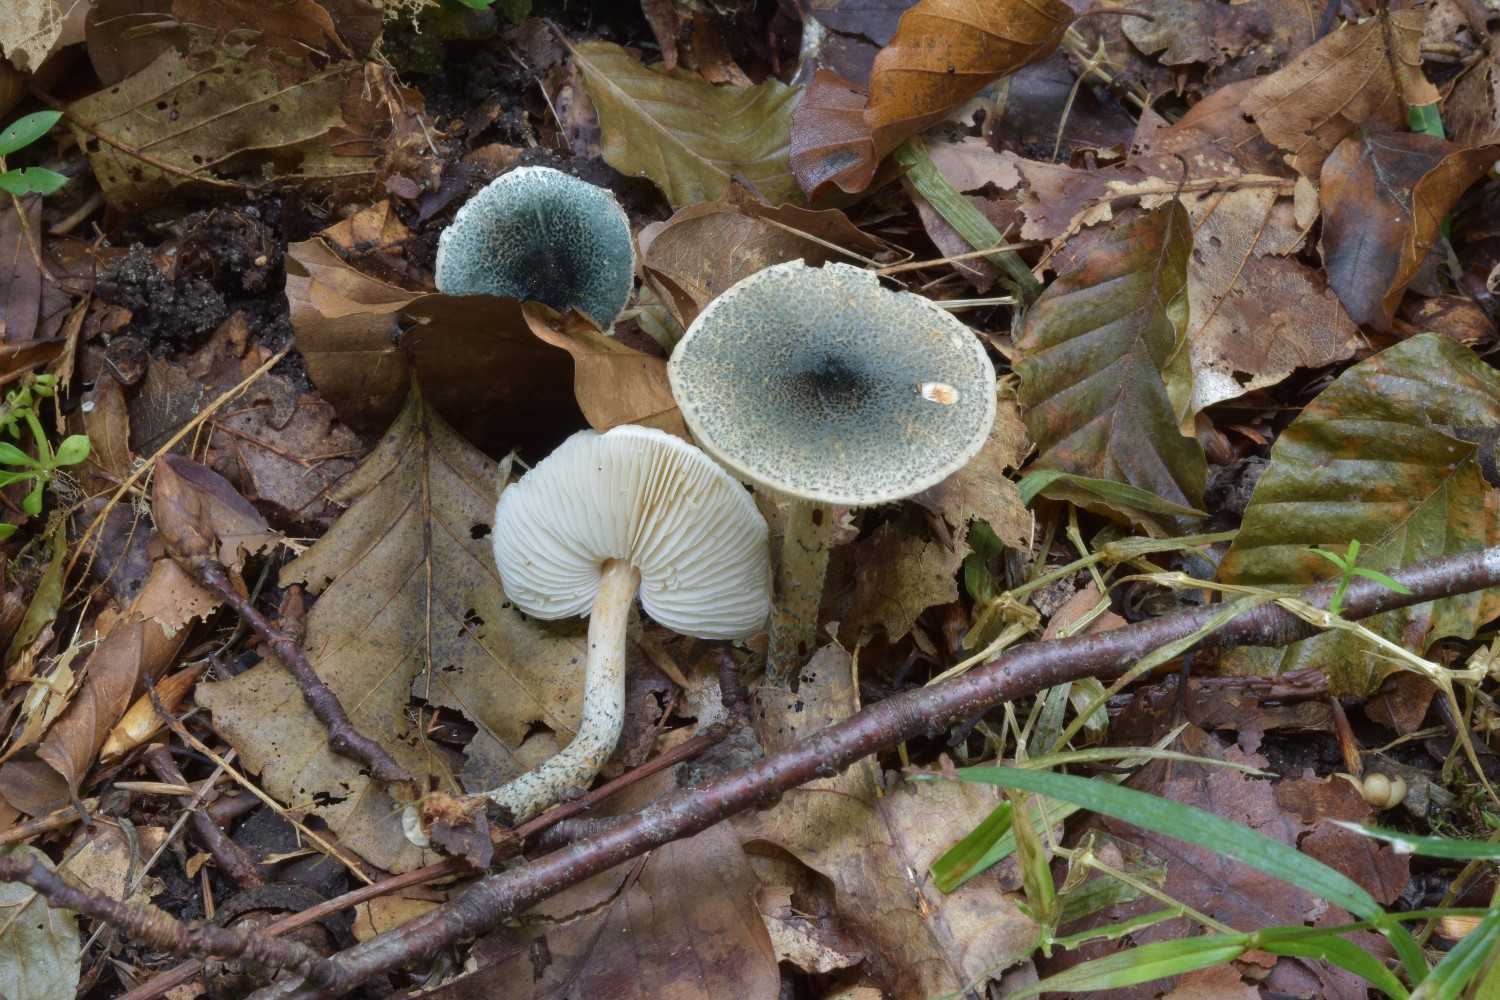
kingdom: Fungi
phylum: Basidiomycota
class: Agaricomycetes
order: Agaricales
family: Agaricaceae
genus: Lepiota
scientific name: Lepiota grangei
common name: grønskællet parasolhat
